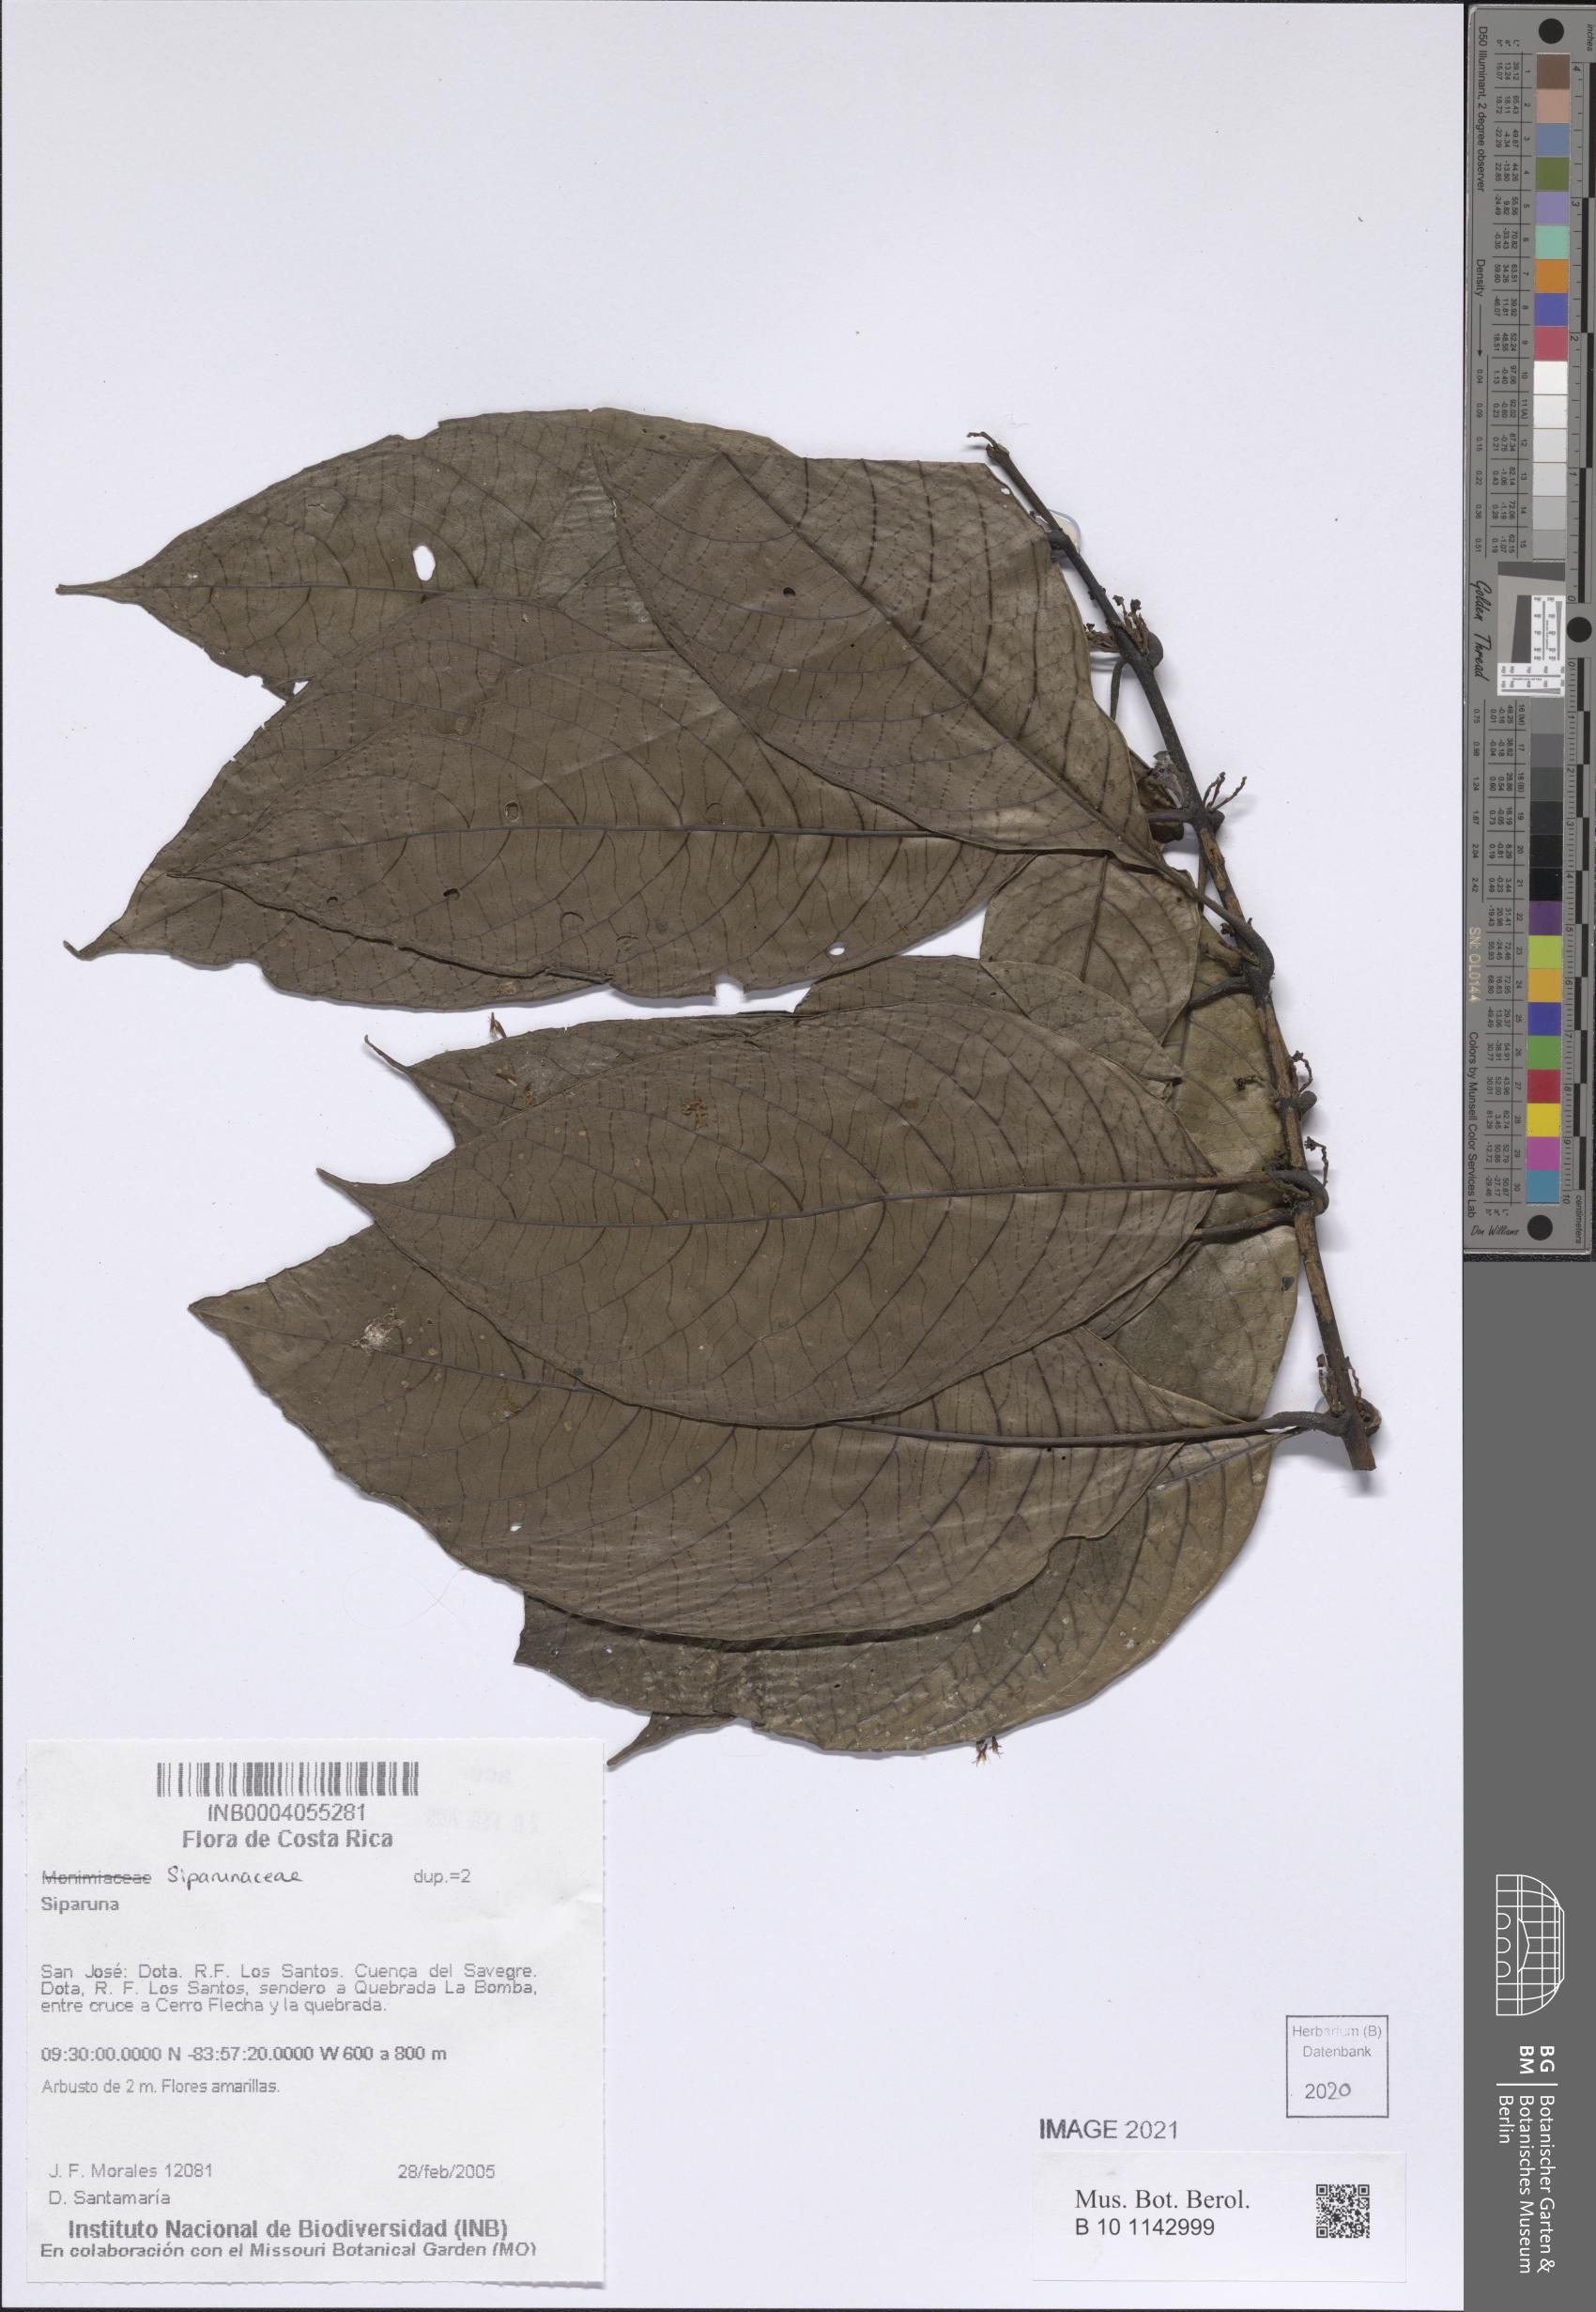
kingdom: Plantae
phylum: Tracheophyta
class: Magnoliopsida
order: Laurales
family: Siparunaceae
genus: Siparuna
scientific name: Siparuna
